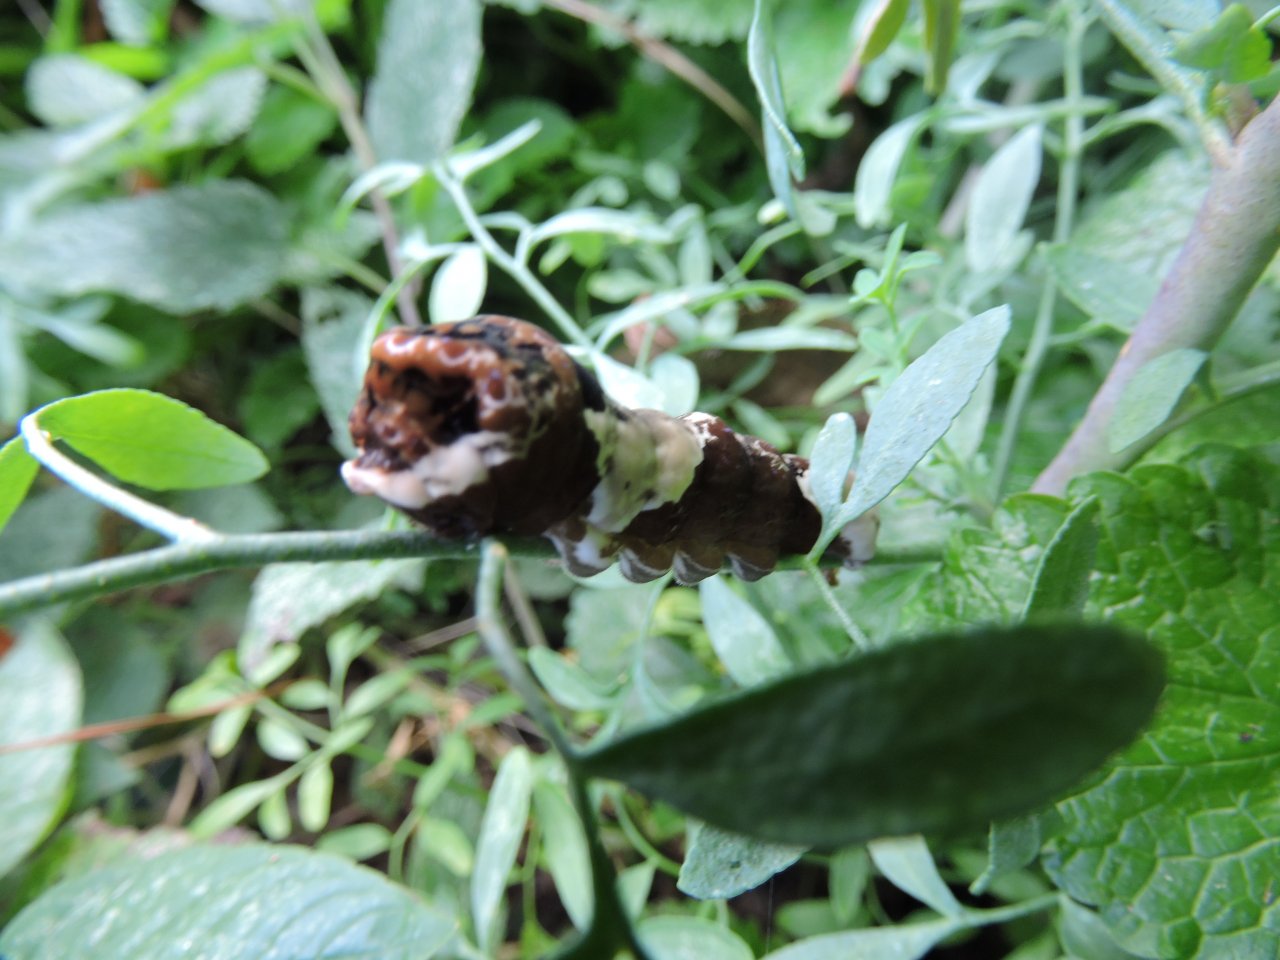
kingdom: Animalia
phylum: Arthropoda
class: Insecta
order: Lepidoptera
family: Papilionidae
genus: Papilio
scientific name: Papilio cresphontes
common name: Eastern Giant Swallowtail
